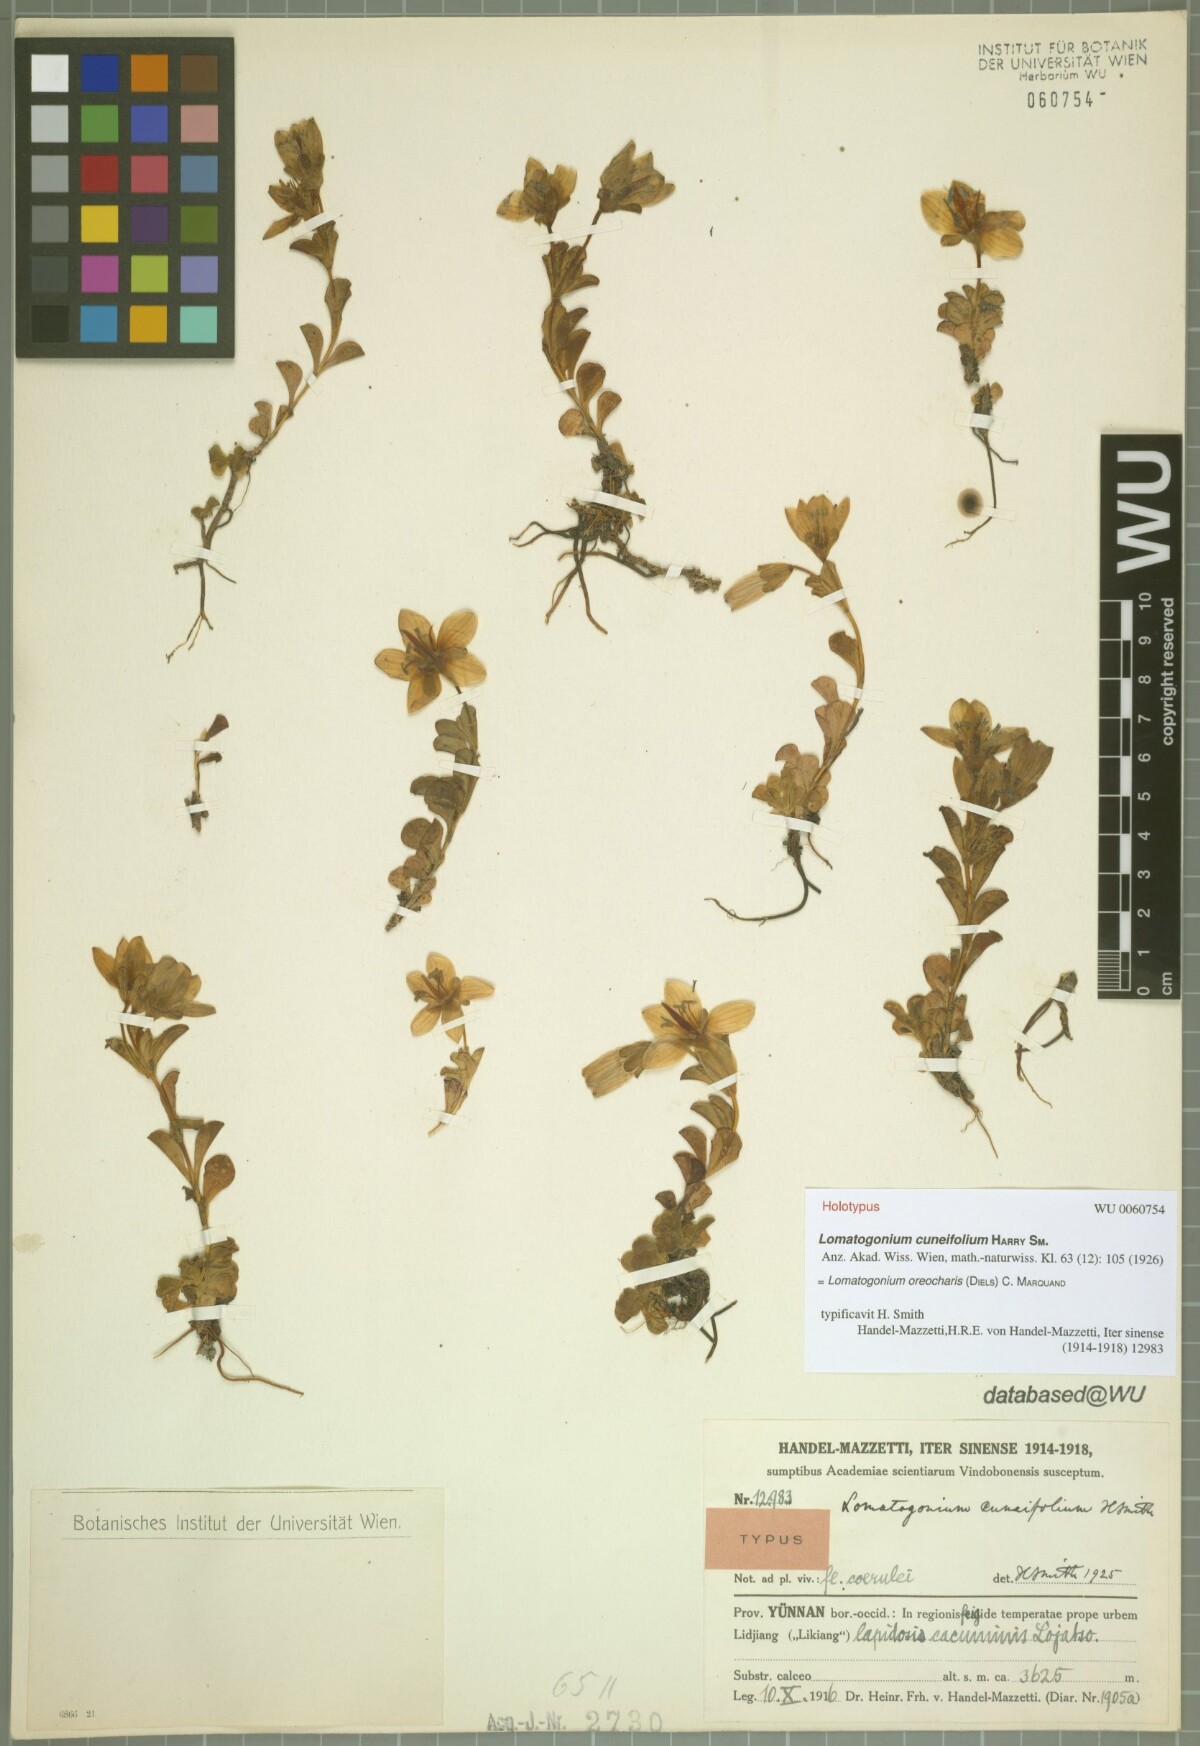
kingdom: Plantae
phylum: Tracheophyta
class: Magnoliopsida
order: Gentianales
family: Gentianaceae
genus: Lomatogonium
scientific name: Lomatogonium oreocharis
